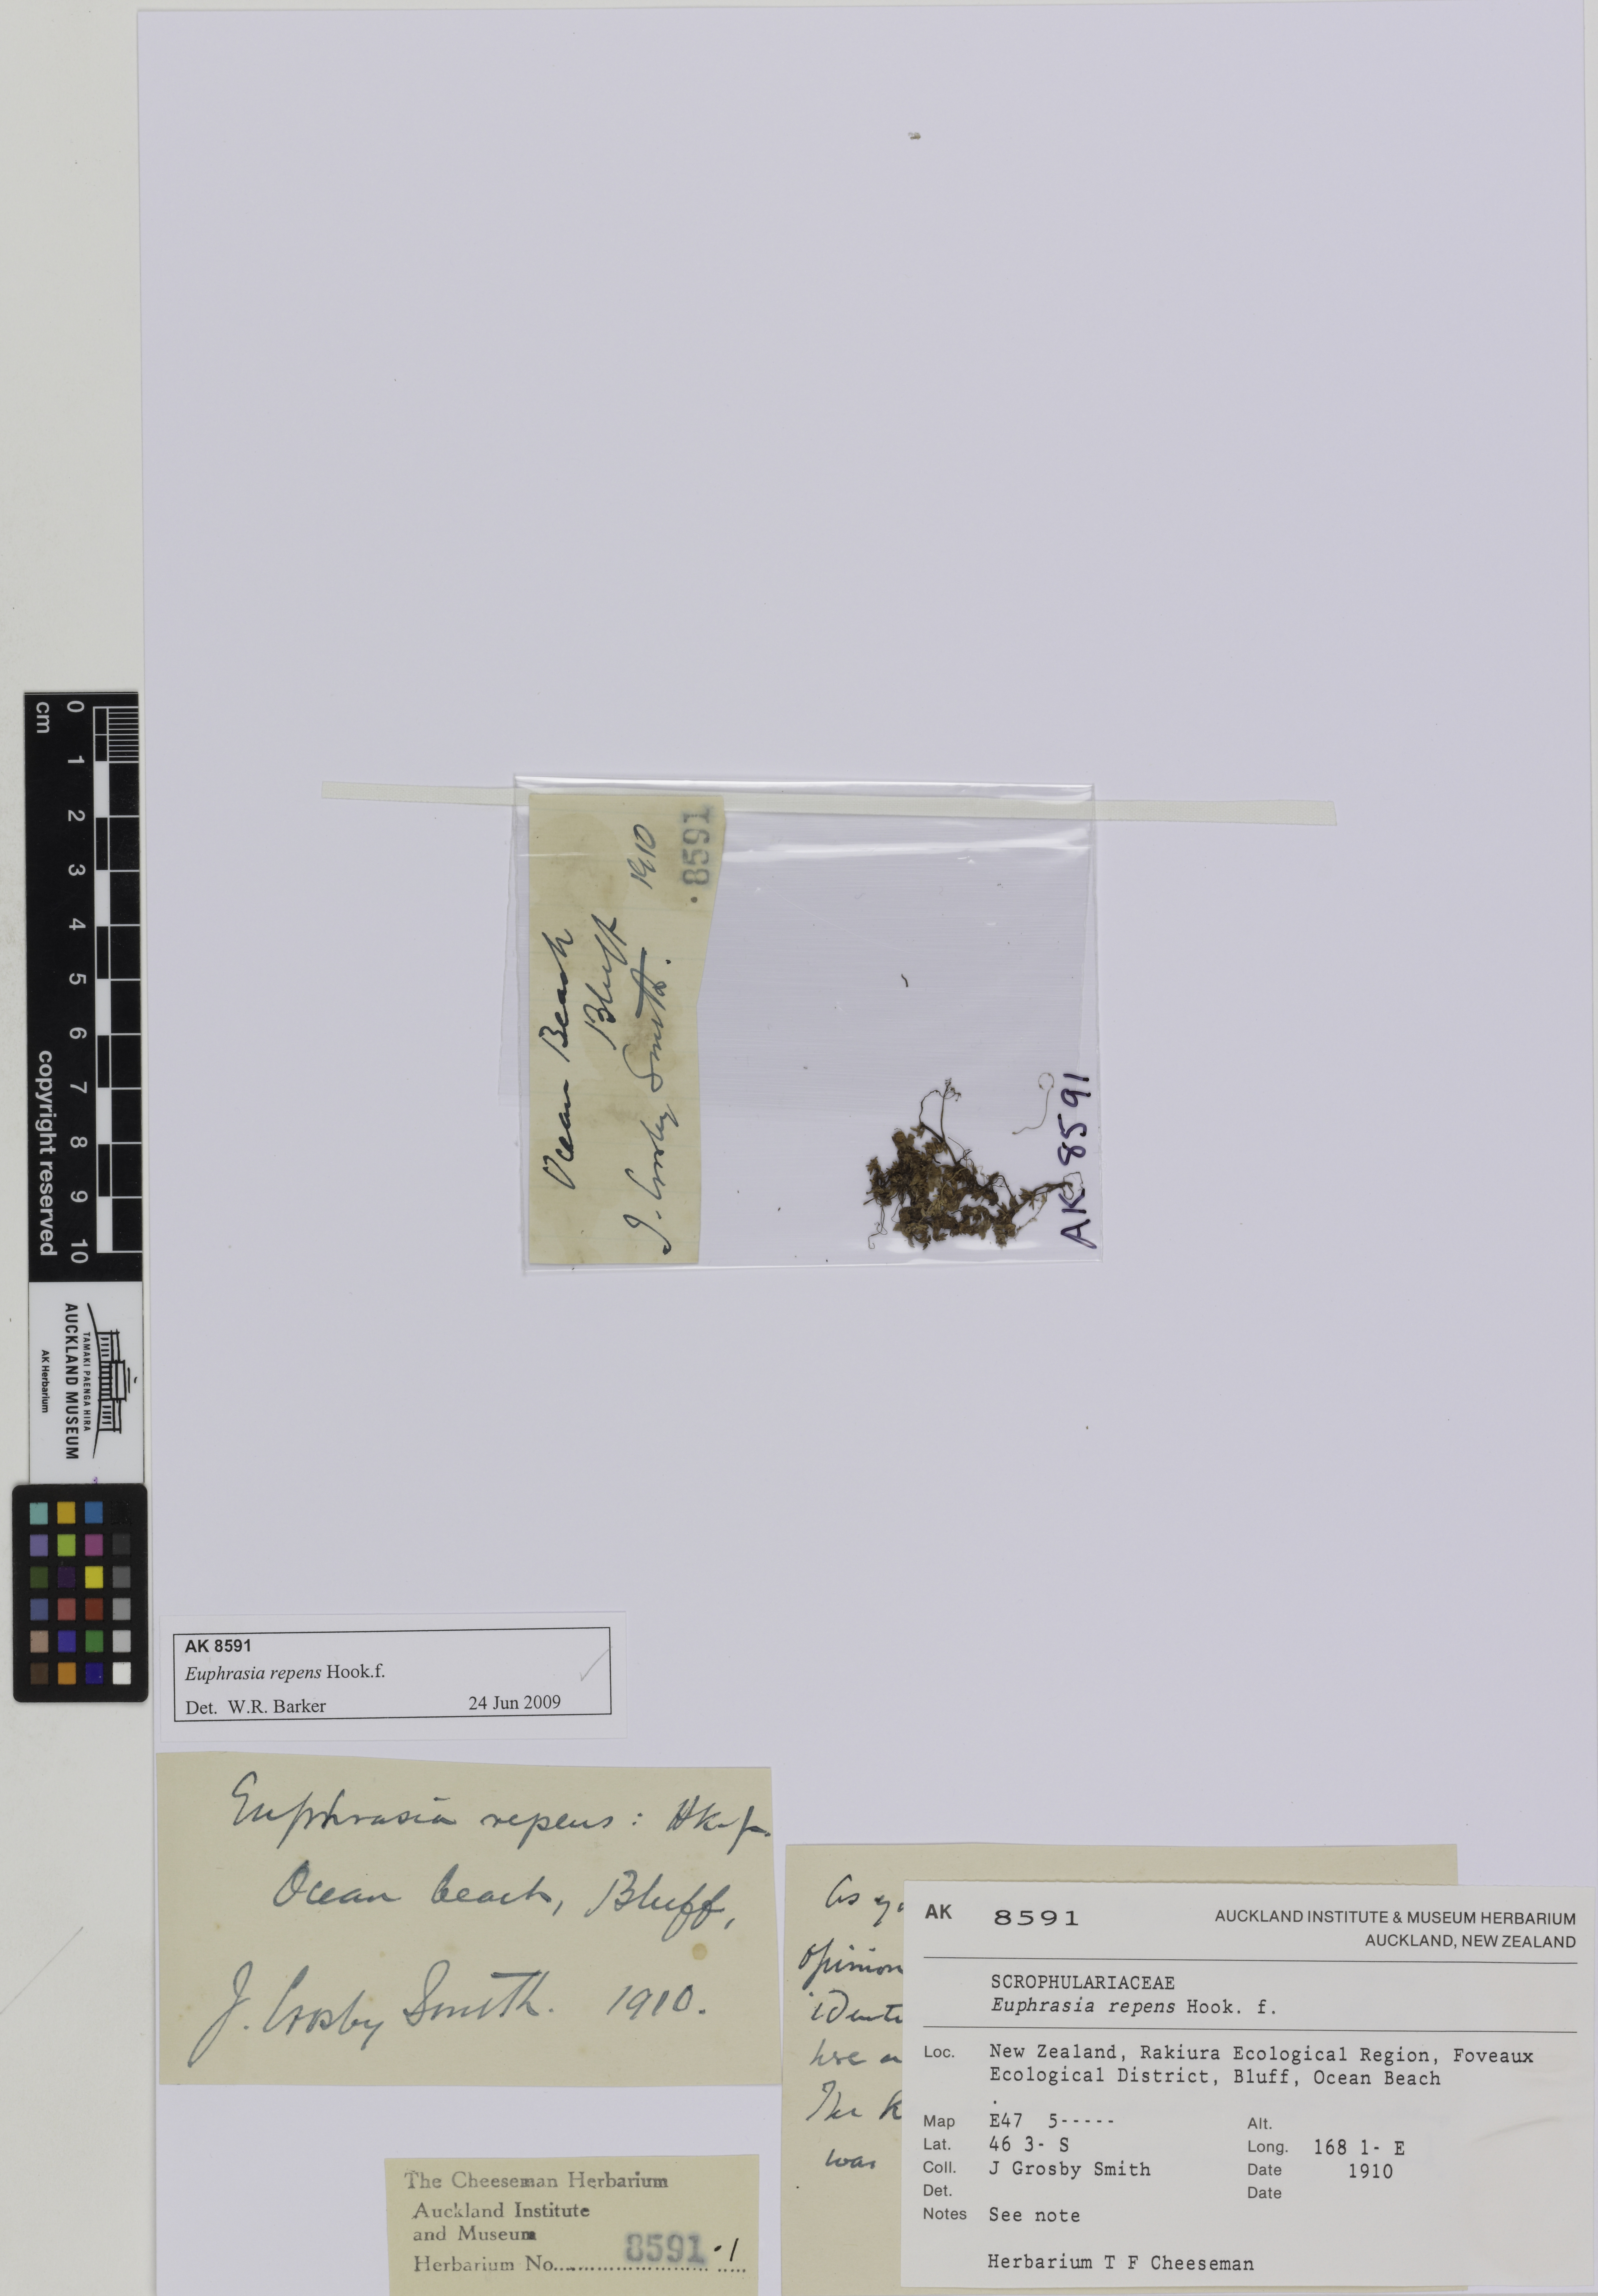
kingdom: Plantae
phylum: Tracheophyta
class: Magnoliopsida
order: Lamiales
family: Orobanchaceae
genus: Euphrasia
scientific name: Euphrasia repens
